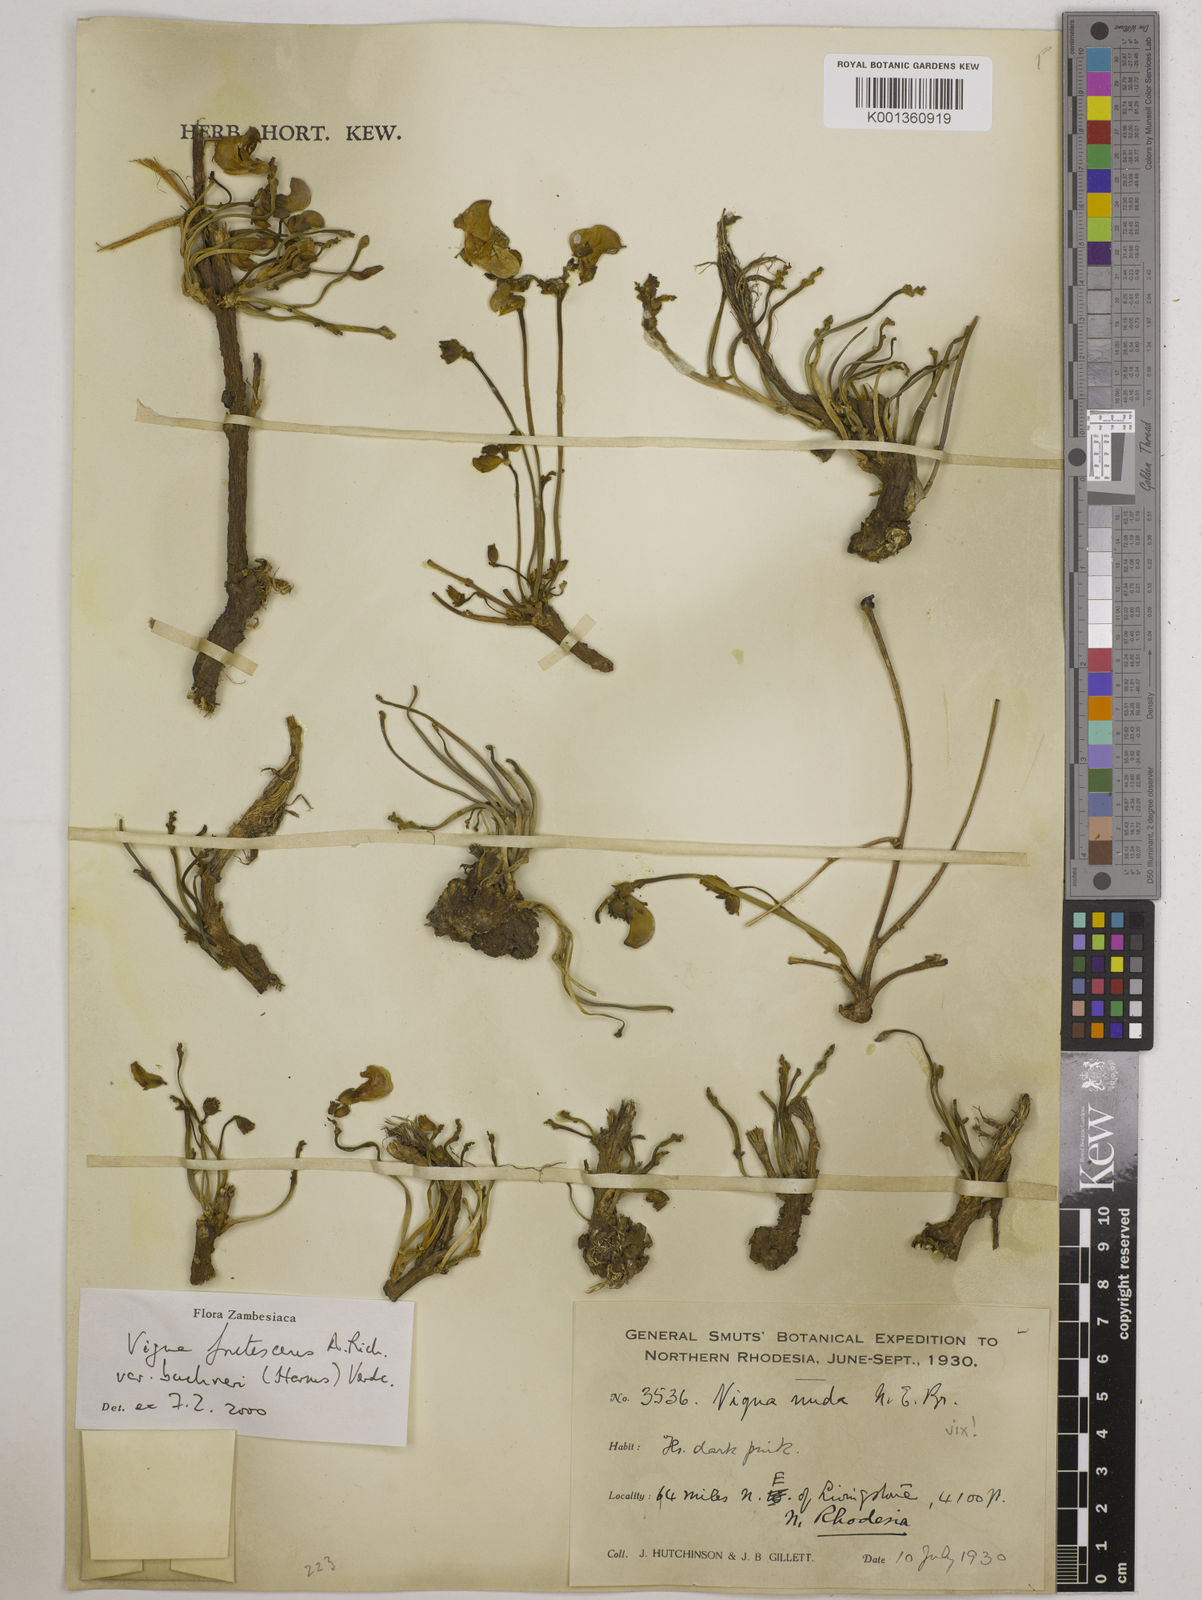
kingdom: Plantae
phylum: Tracheophyta
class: Magnoliopsida
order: Fabales
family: Fabaceae
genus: Vigna
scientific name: Vigna frutescens
